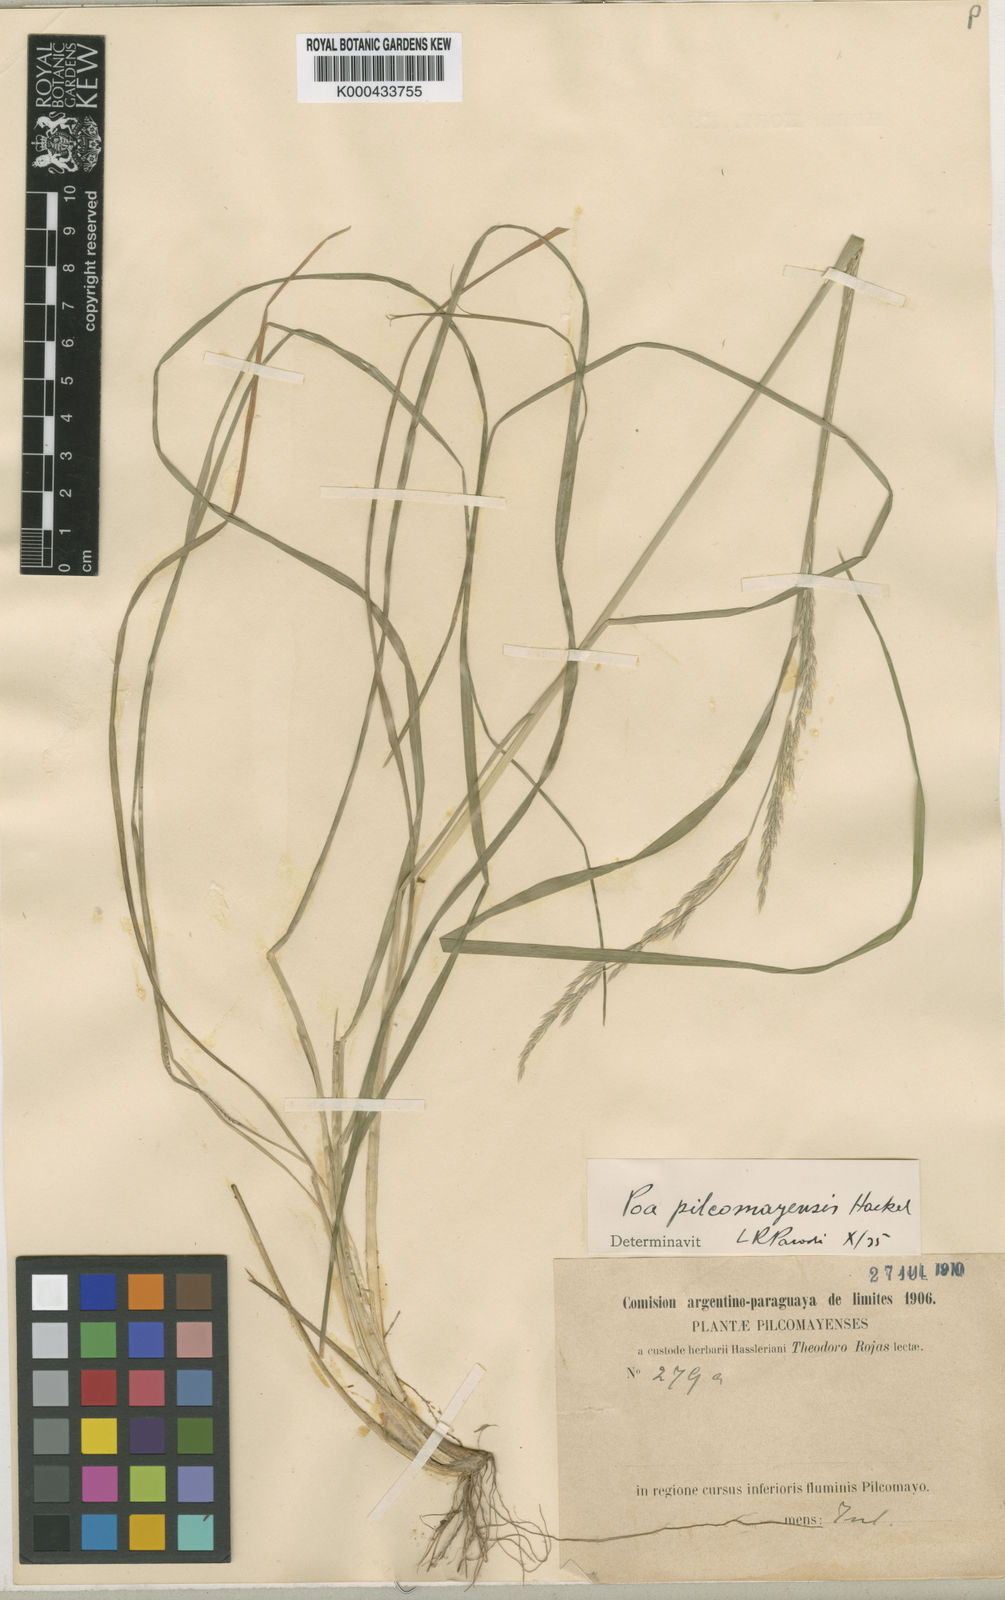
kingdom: Plantae
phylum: Tracheophyta
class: Liliopsida
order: Poales
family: Poaceae
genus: Poa
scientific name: Poa pilcomayensis
